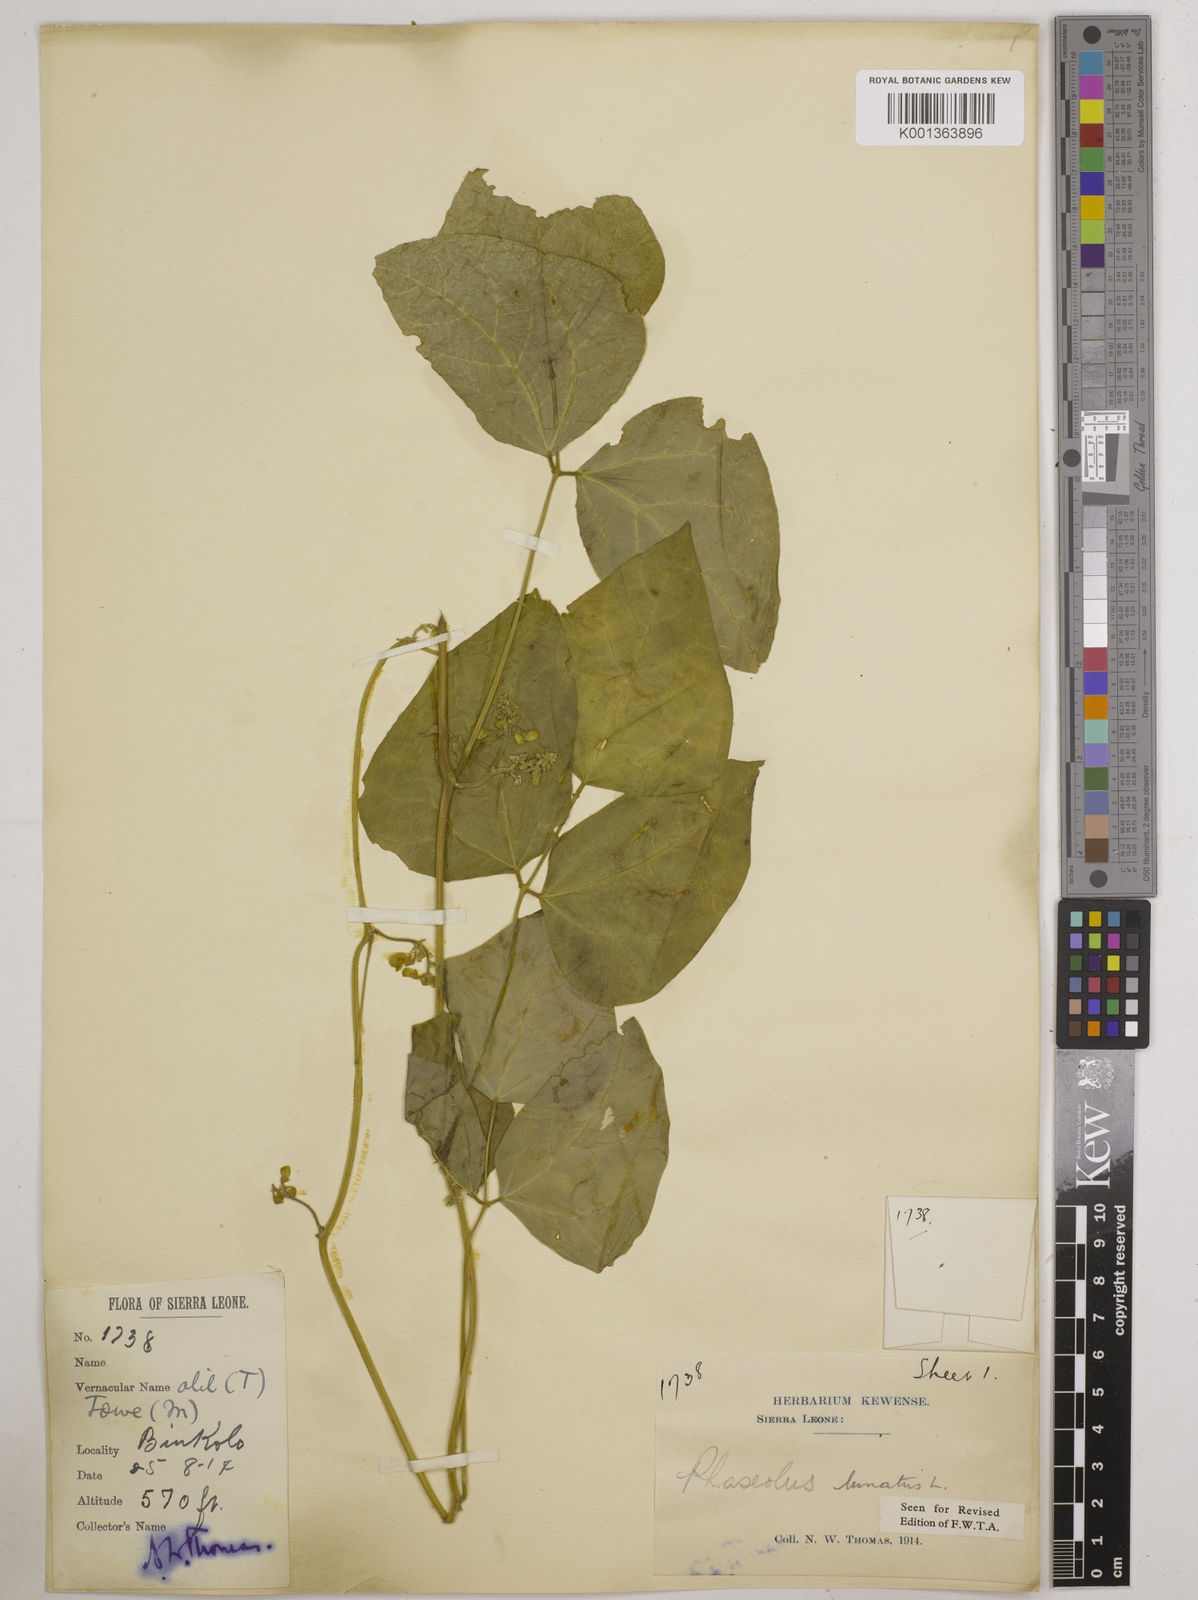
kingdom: Plantae
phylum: Tracheophyta
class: Magnoliopsida
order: Fabales
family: Fabaceae
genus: Phaseolus
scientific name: Phaseolus lunatus
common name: Sieva bean
